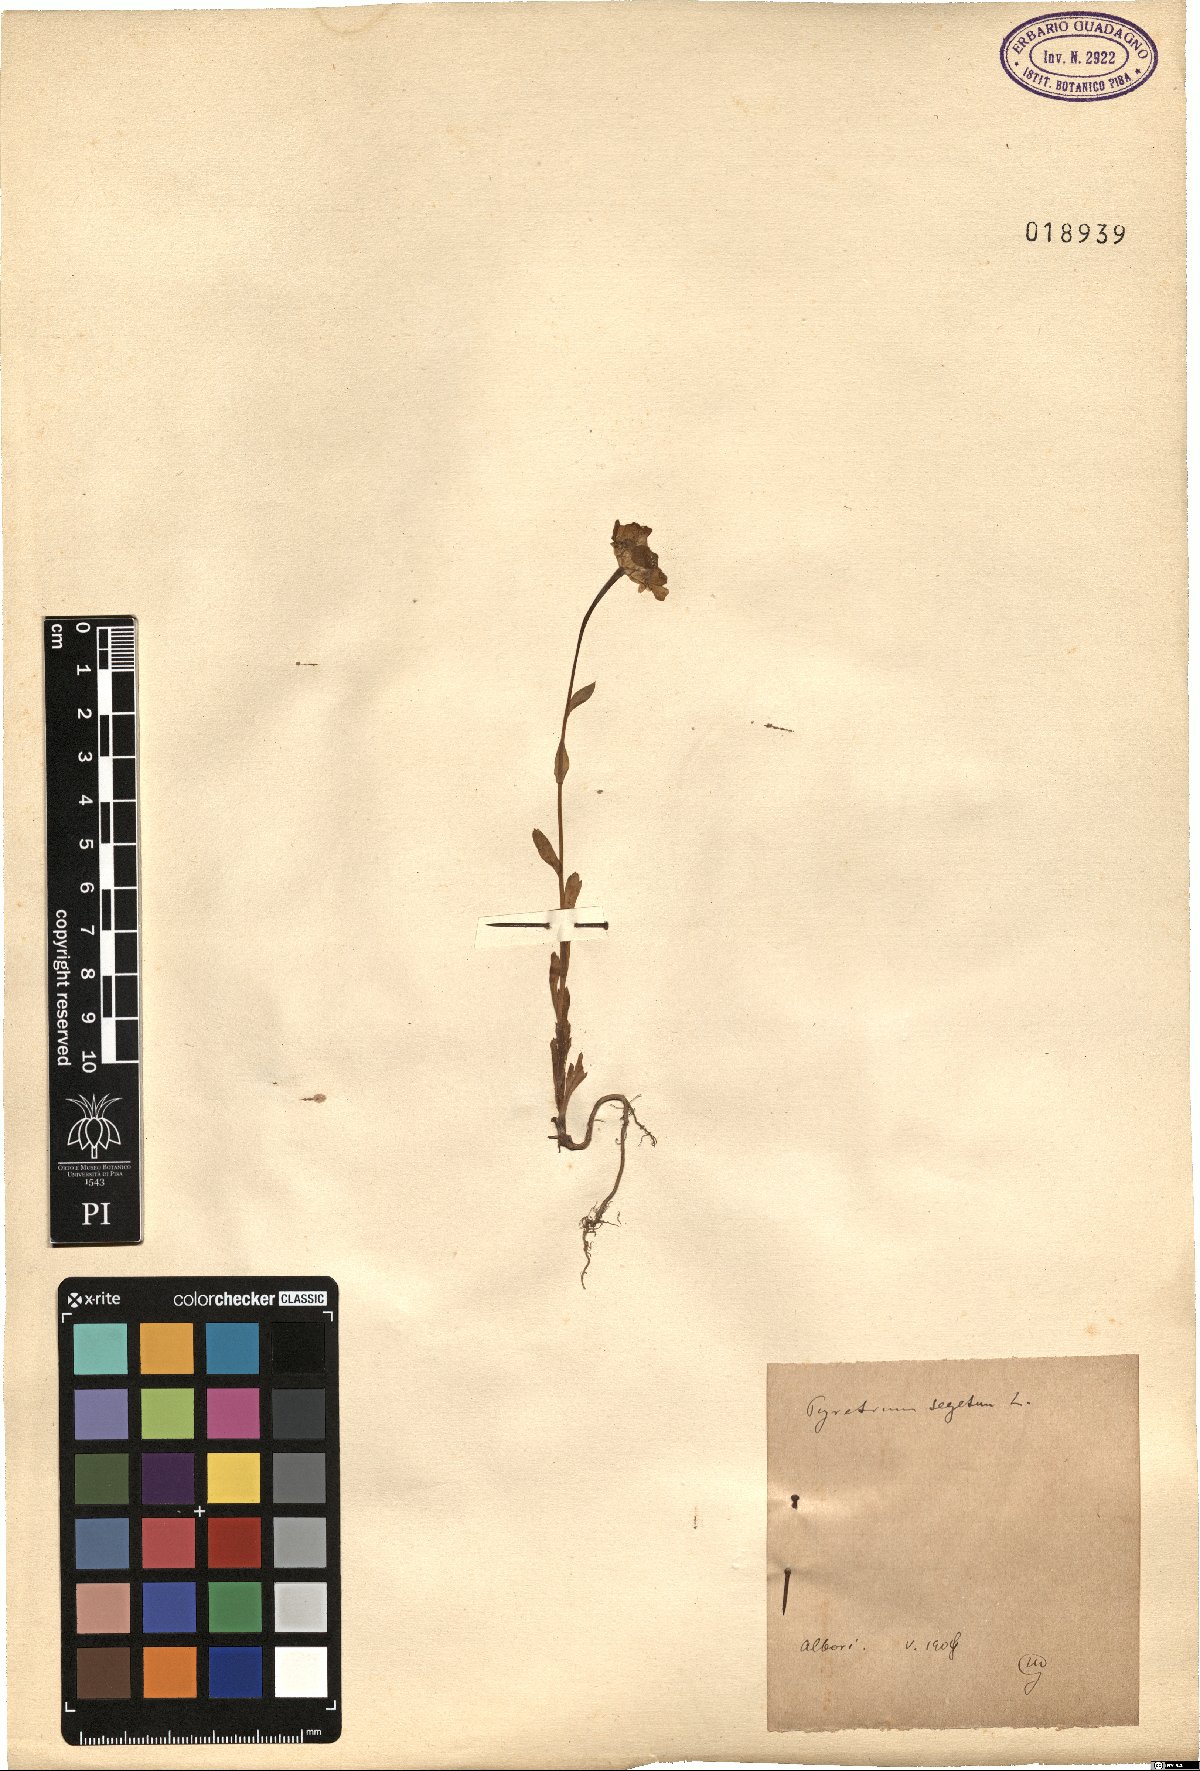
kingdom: Plantae
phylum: Tracheophyta
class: Magnoliopsida
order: Asterales
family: Asteraceae
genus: Glebionis
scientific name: Glebionis segetum
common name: Corndaisy
